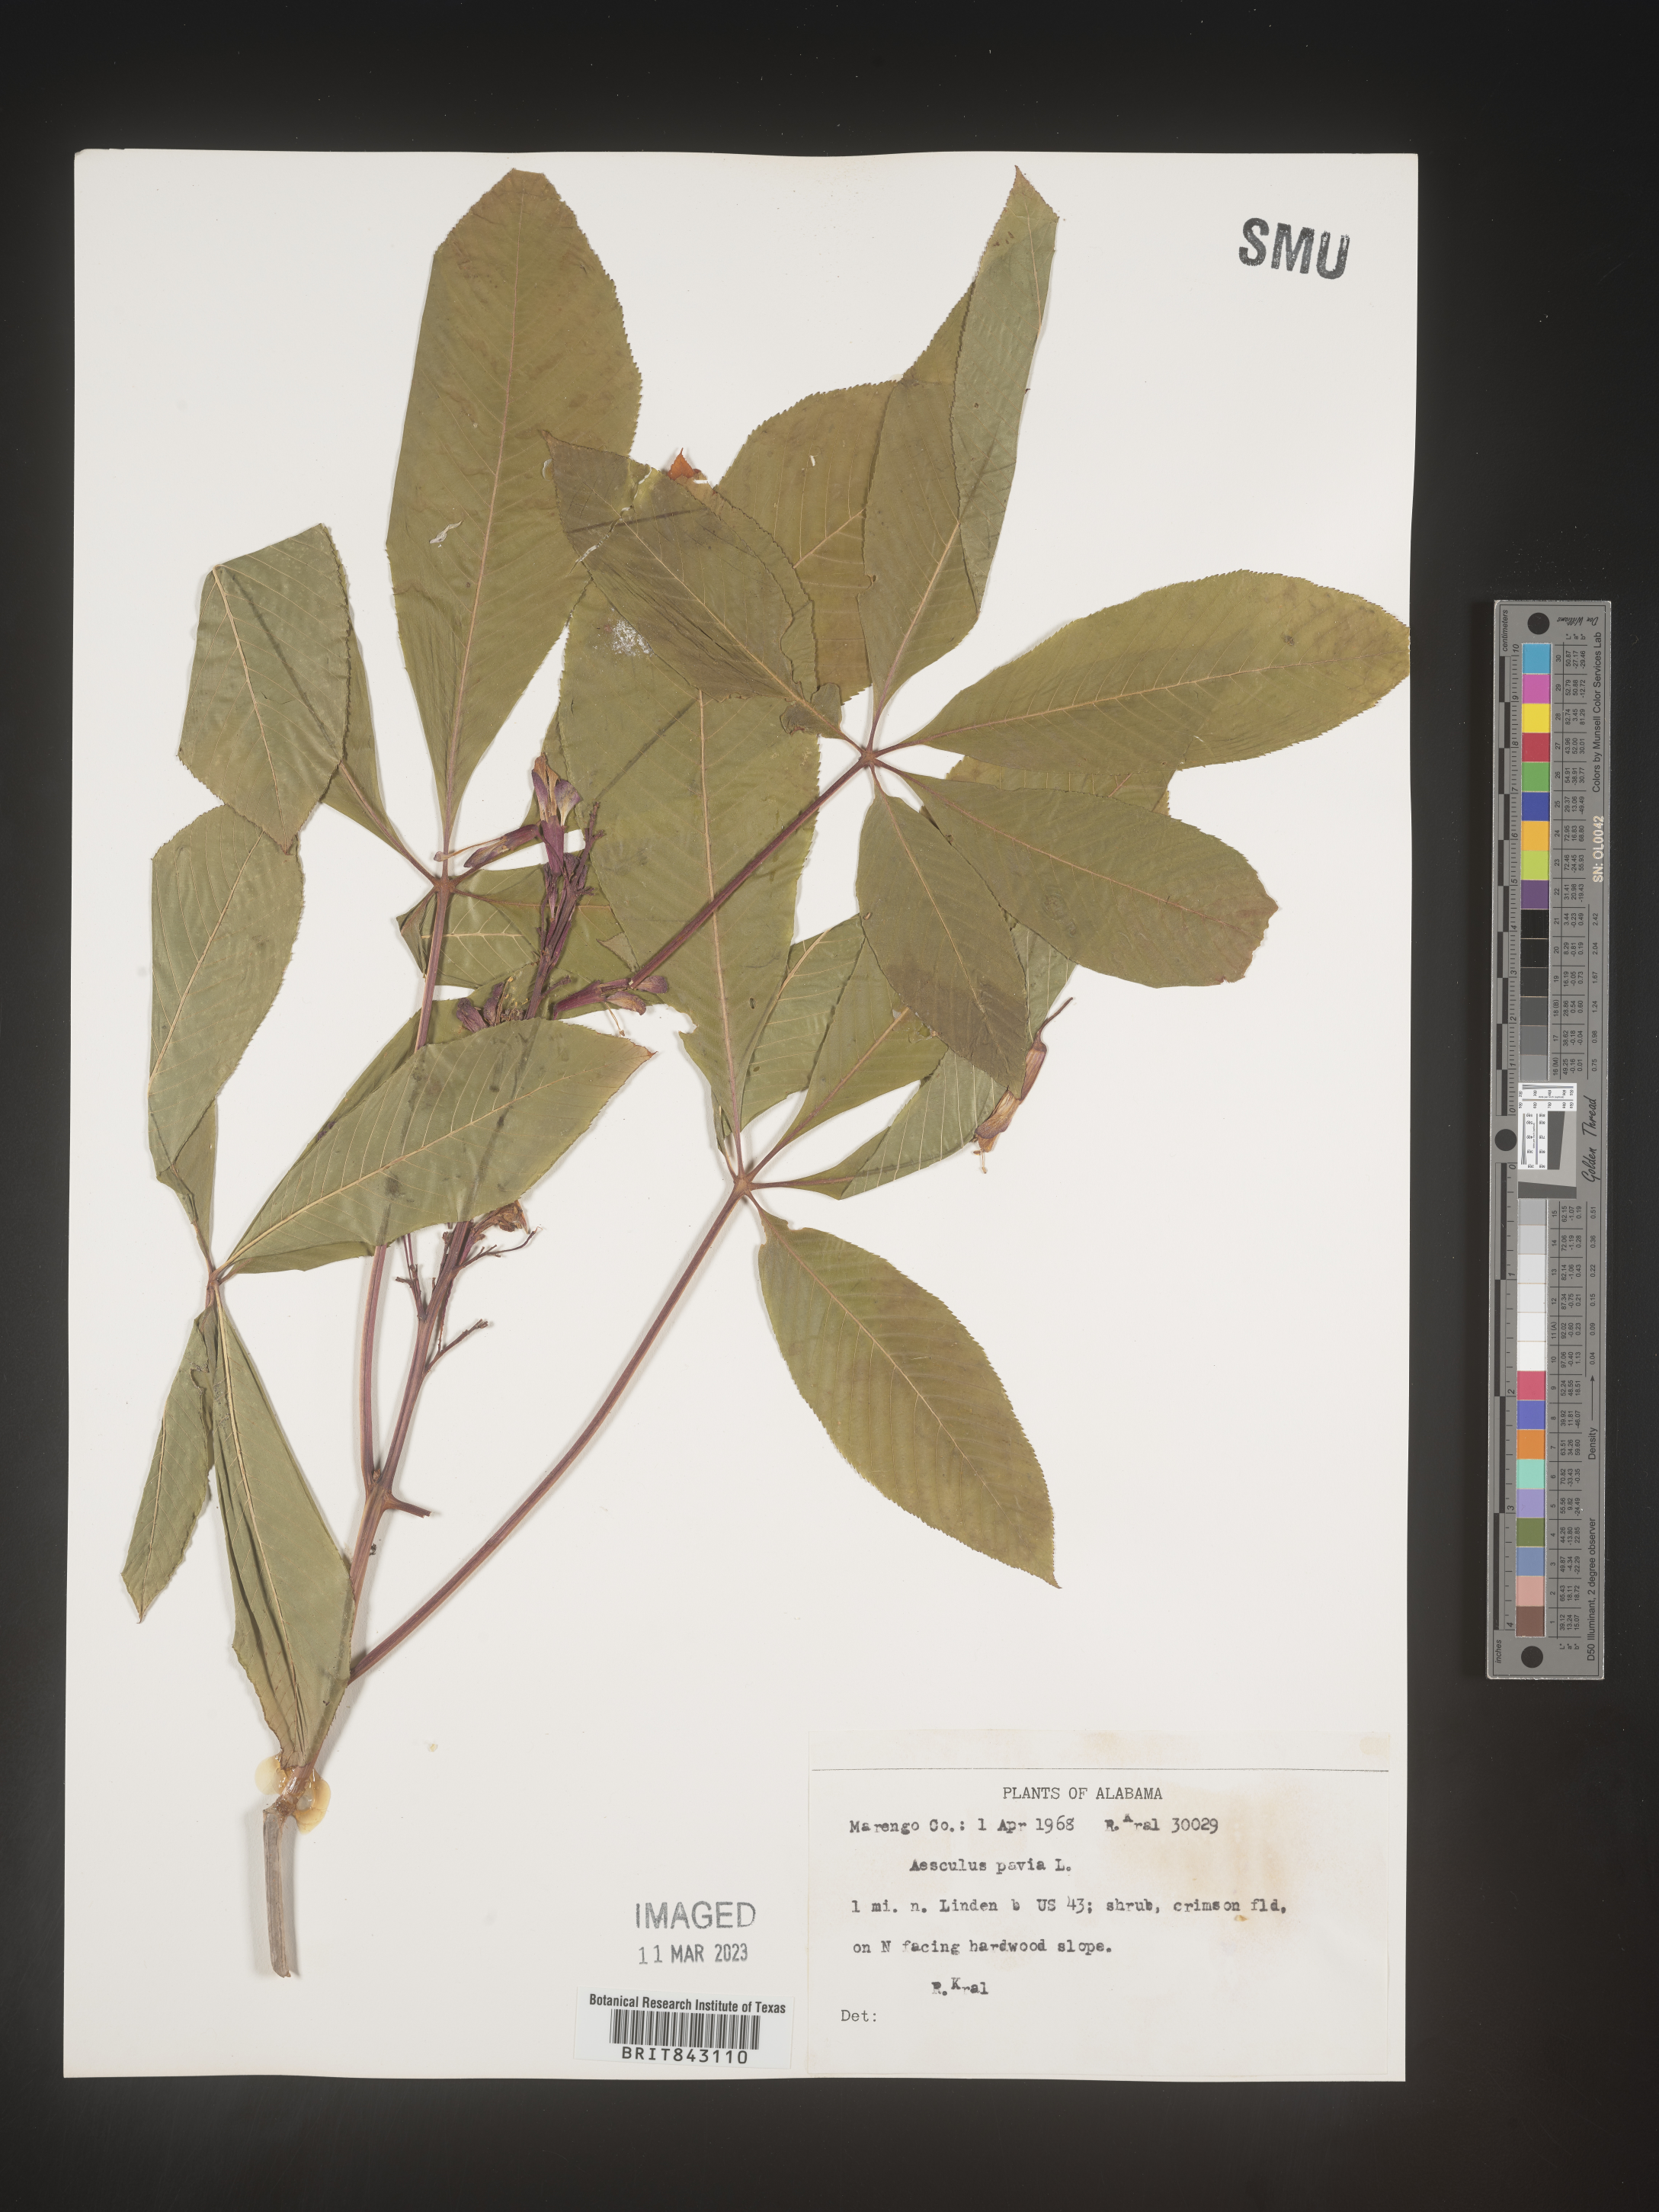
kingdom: Plantae
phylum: Tracheophyta
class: Magnoliopsida
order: Sapindales
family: Sapindaceae
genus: Aesculus
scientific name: Aesculus pavia
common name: Red buckeye
